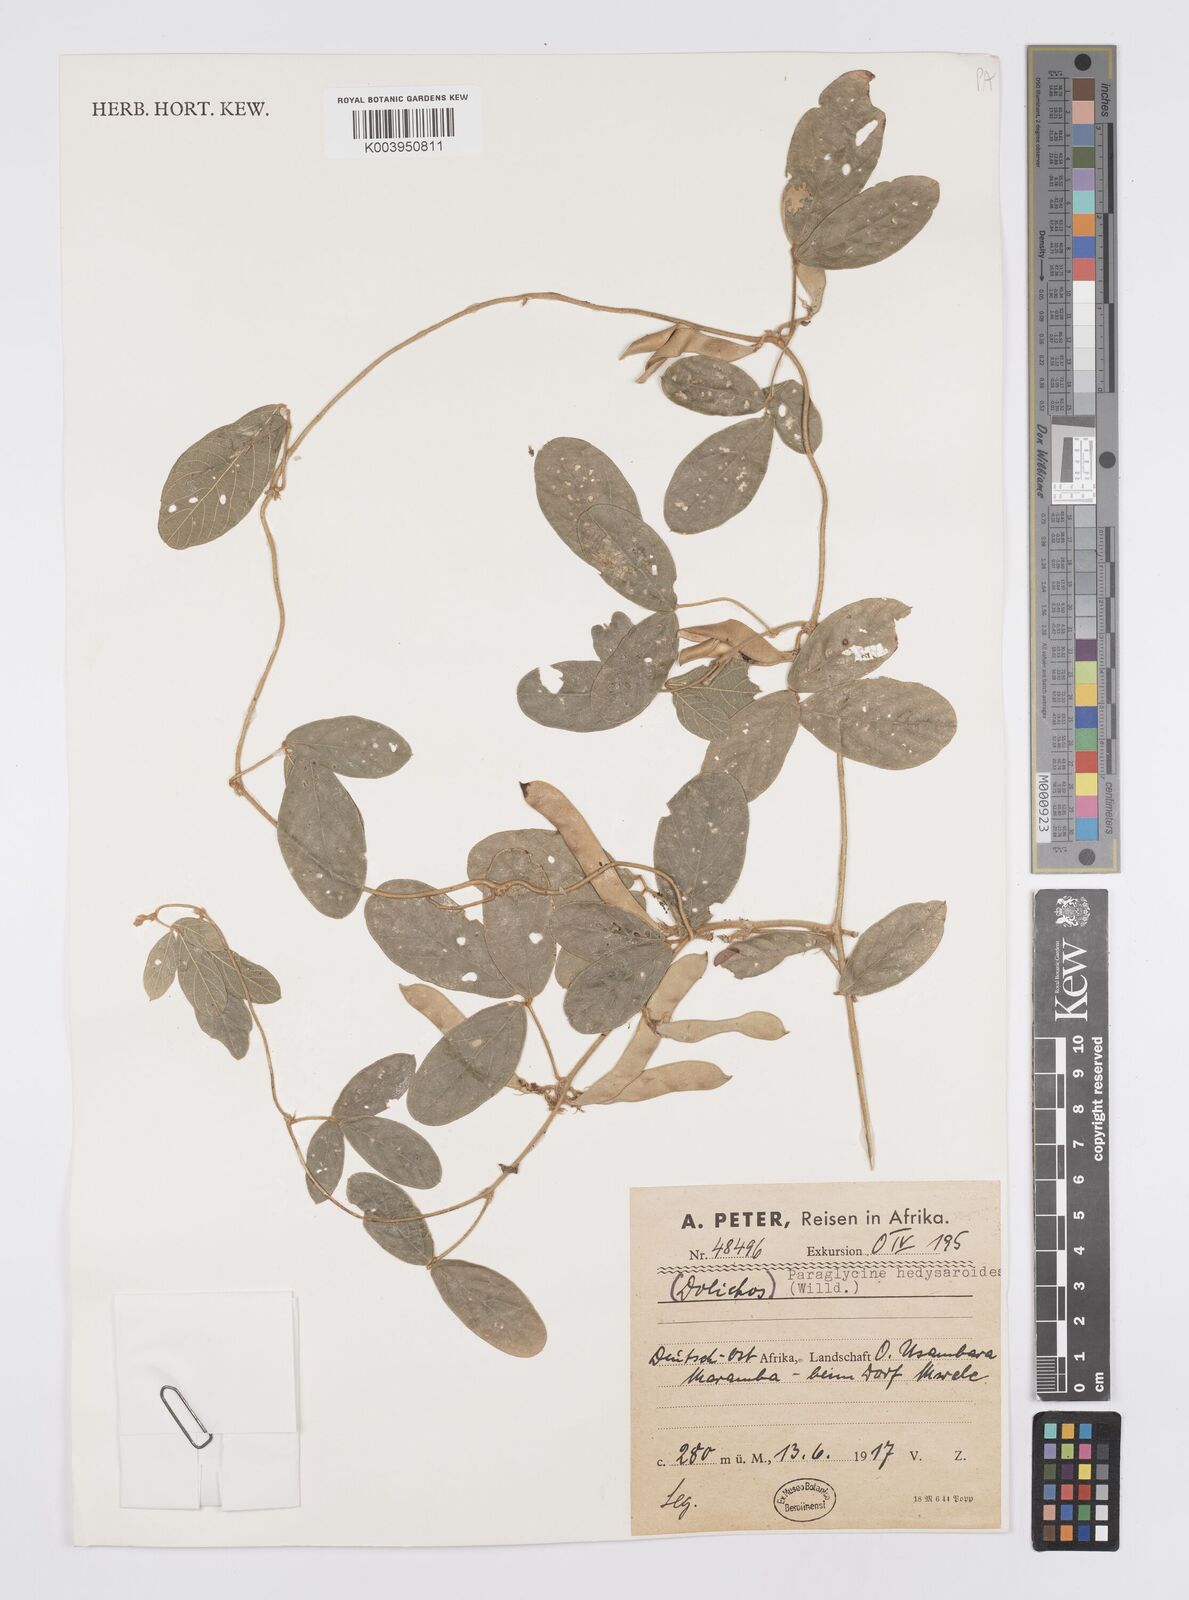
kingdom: Plantae
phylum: Tracheophyta
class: Magnoliopsida
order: Fabales
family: Fabaceae
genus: Ophrestia
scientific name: Ophrestia hedysaroides
